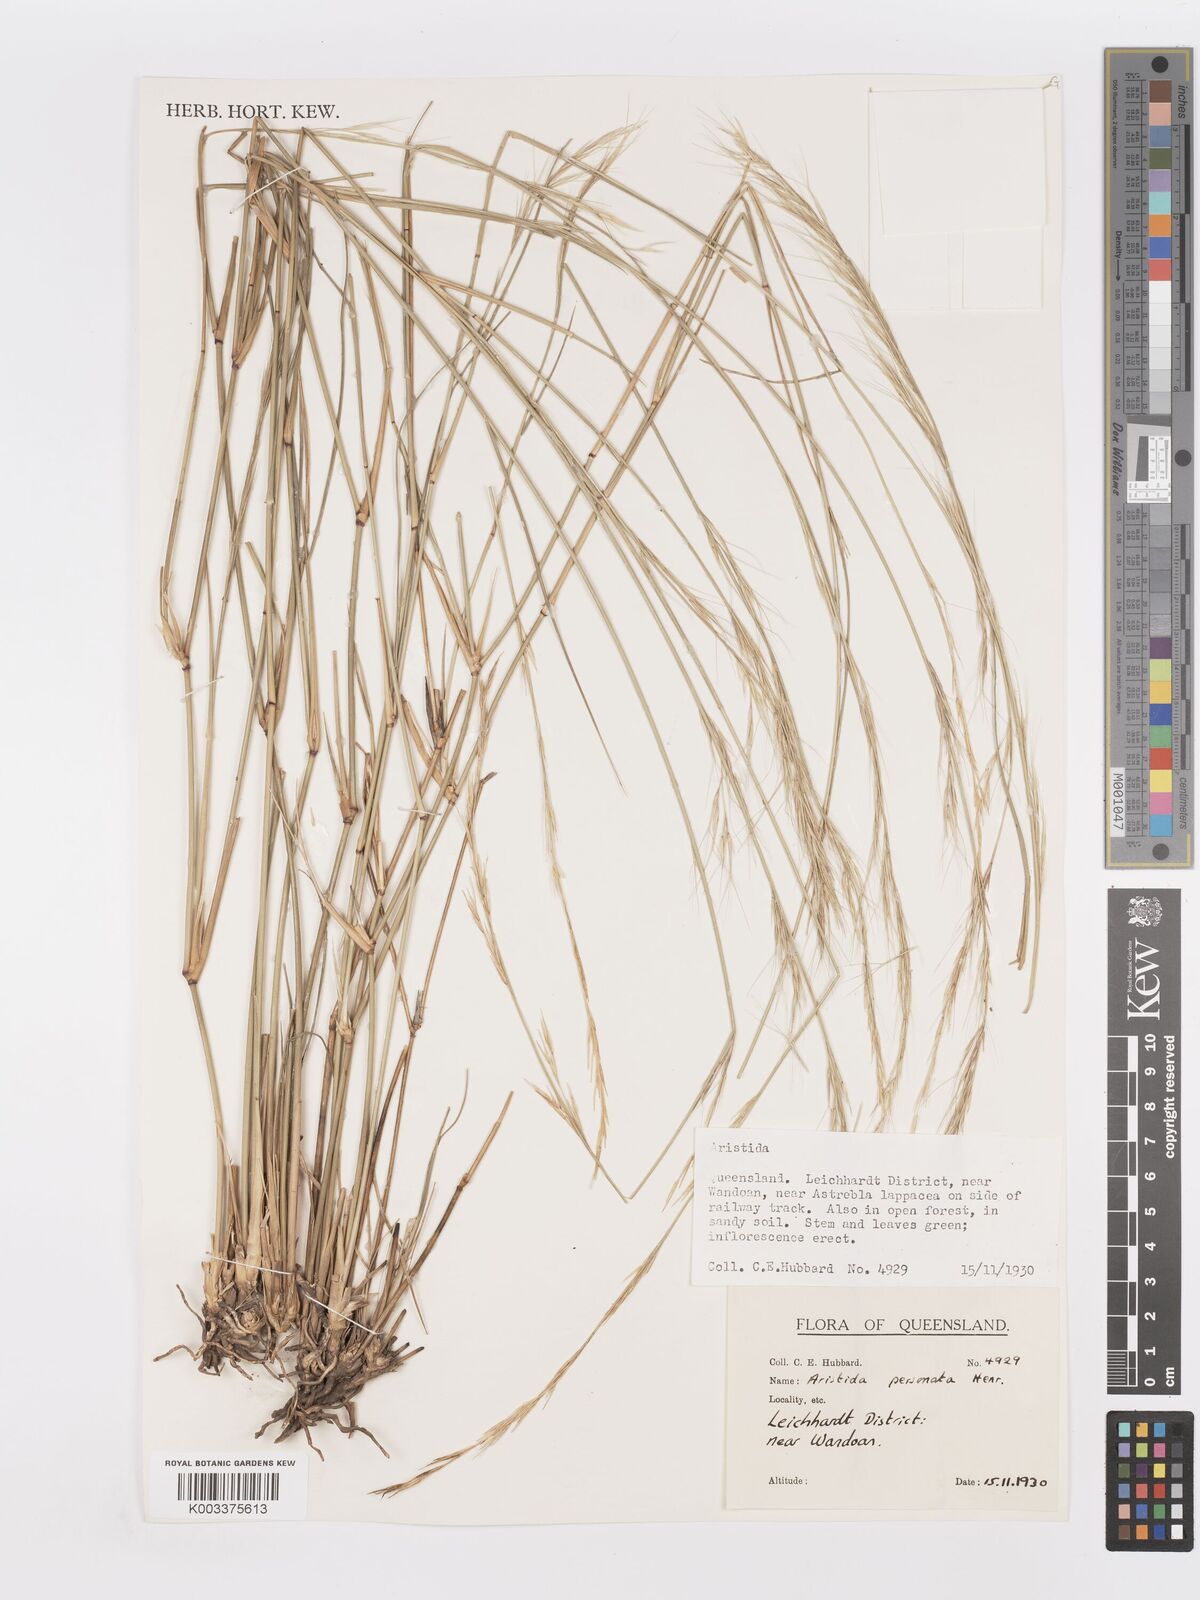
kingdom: Plantae
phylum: Tracheophyta
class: Liliopsida
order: Poales
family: Poaceae
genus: Aristida
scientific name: Aristida personata
